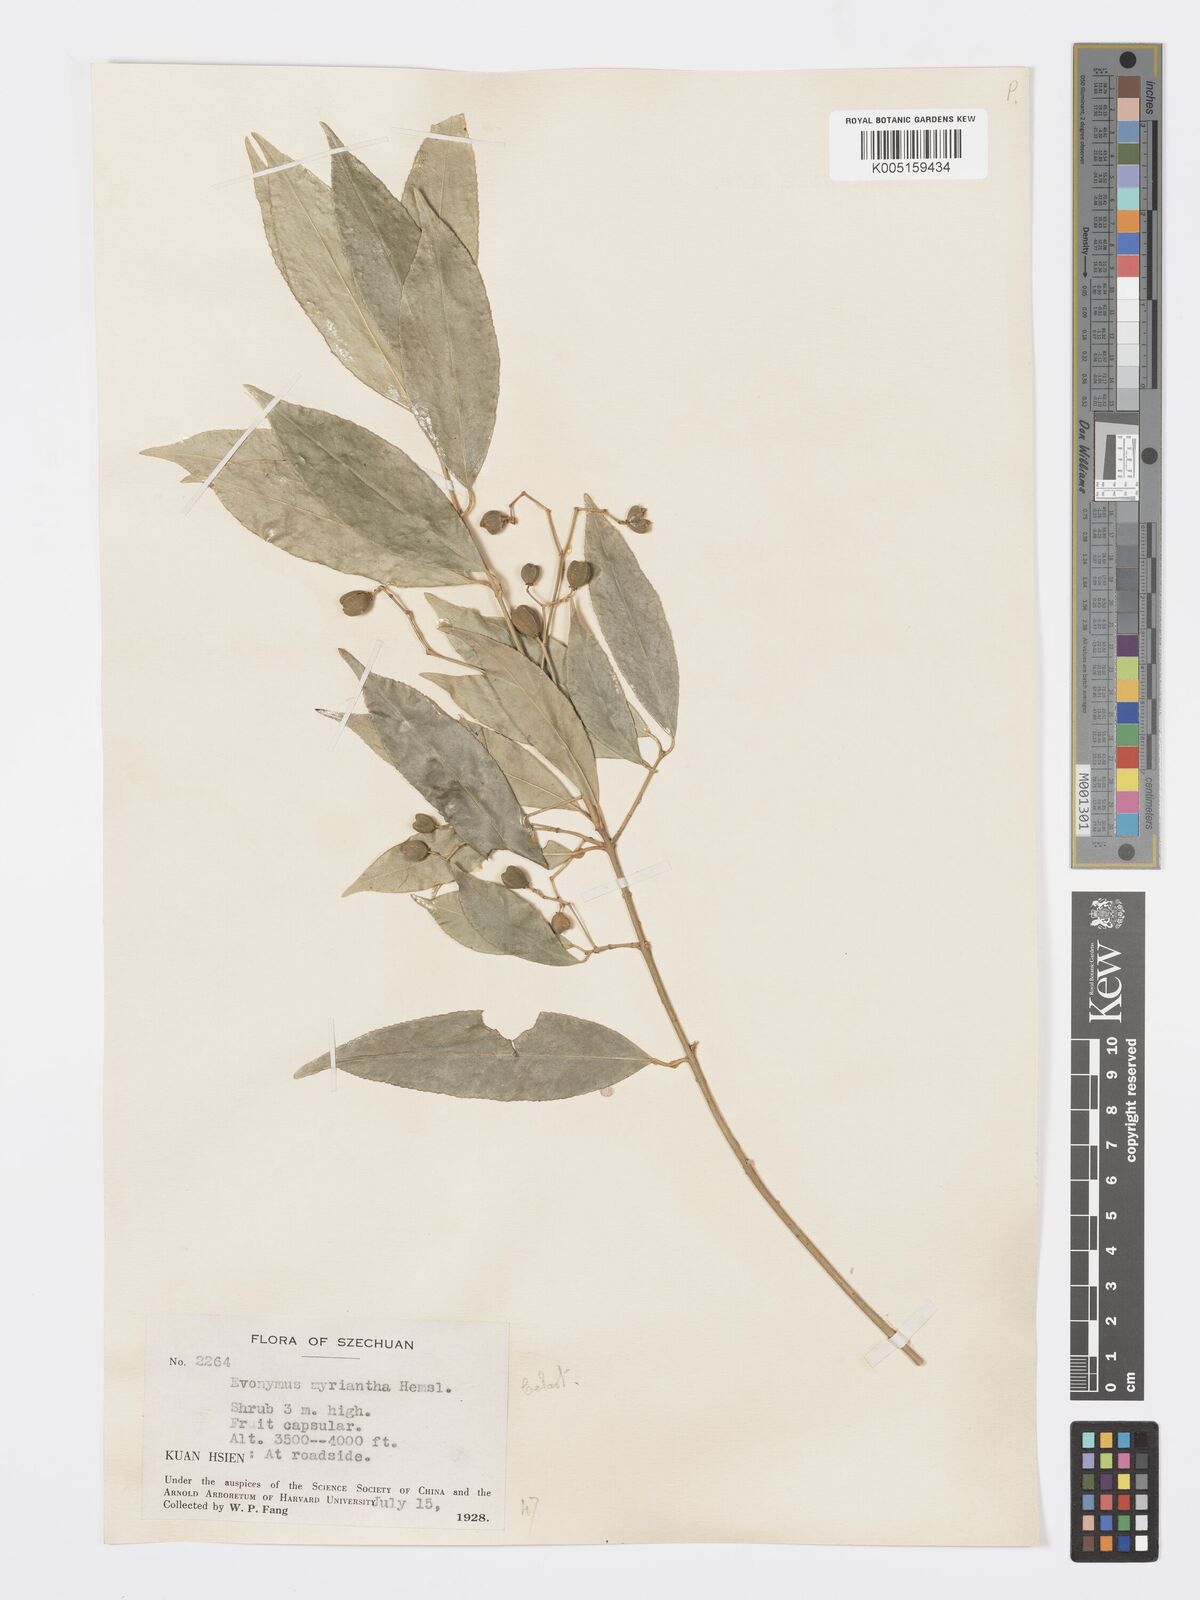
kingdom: Plantae
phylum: Tracheophyta
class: Magnoliopsida
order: Celastrales
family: Celastraceae
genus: Euonymus
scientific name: Euonymus myrianthus
